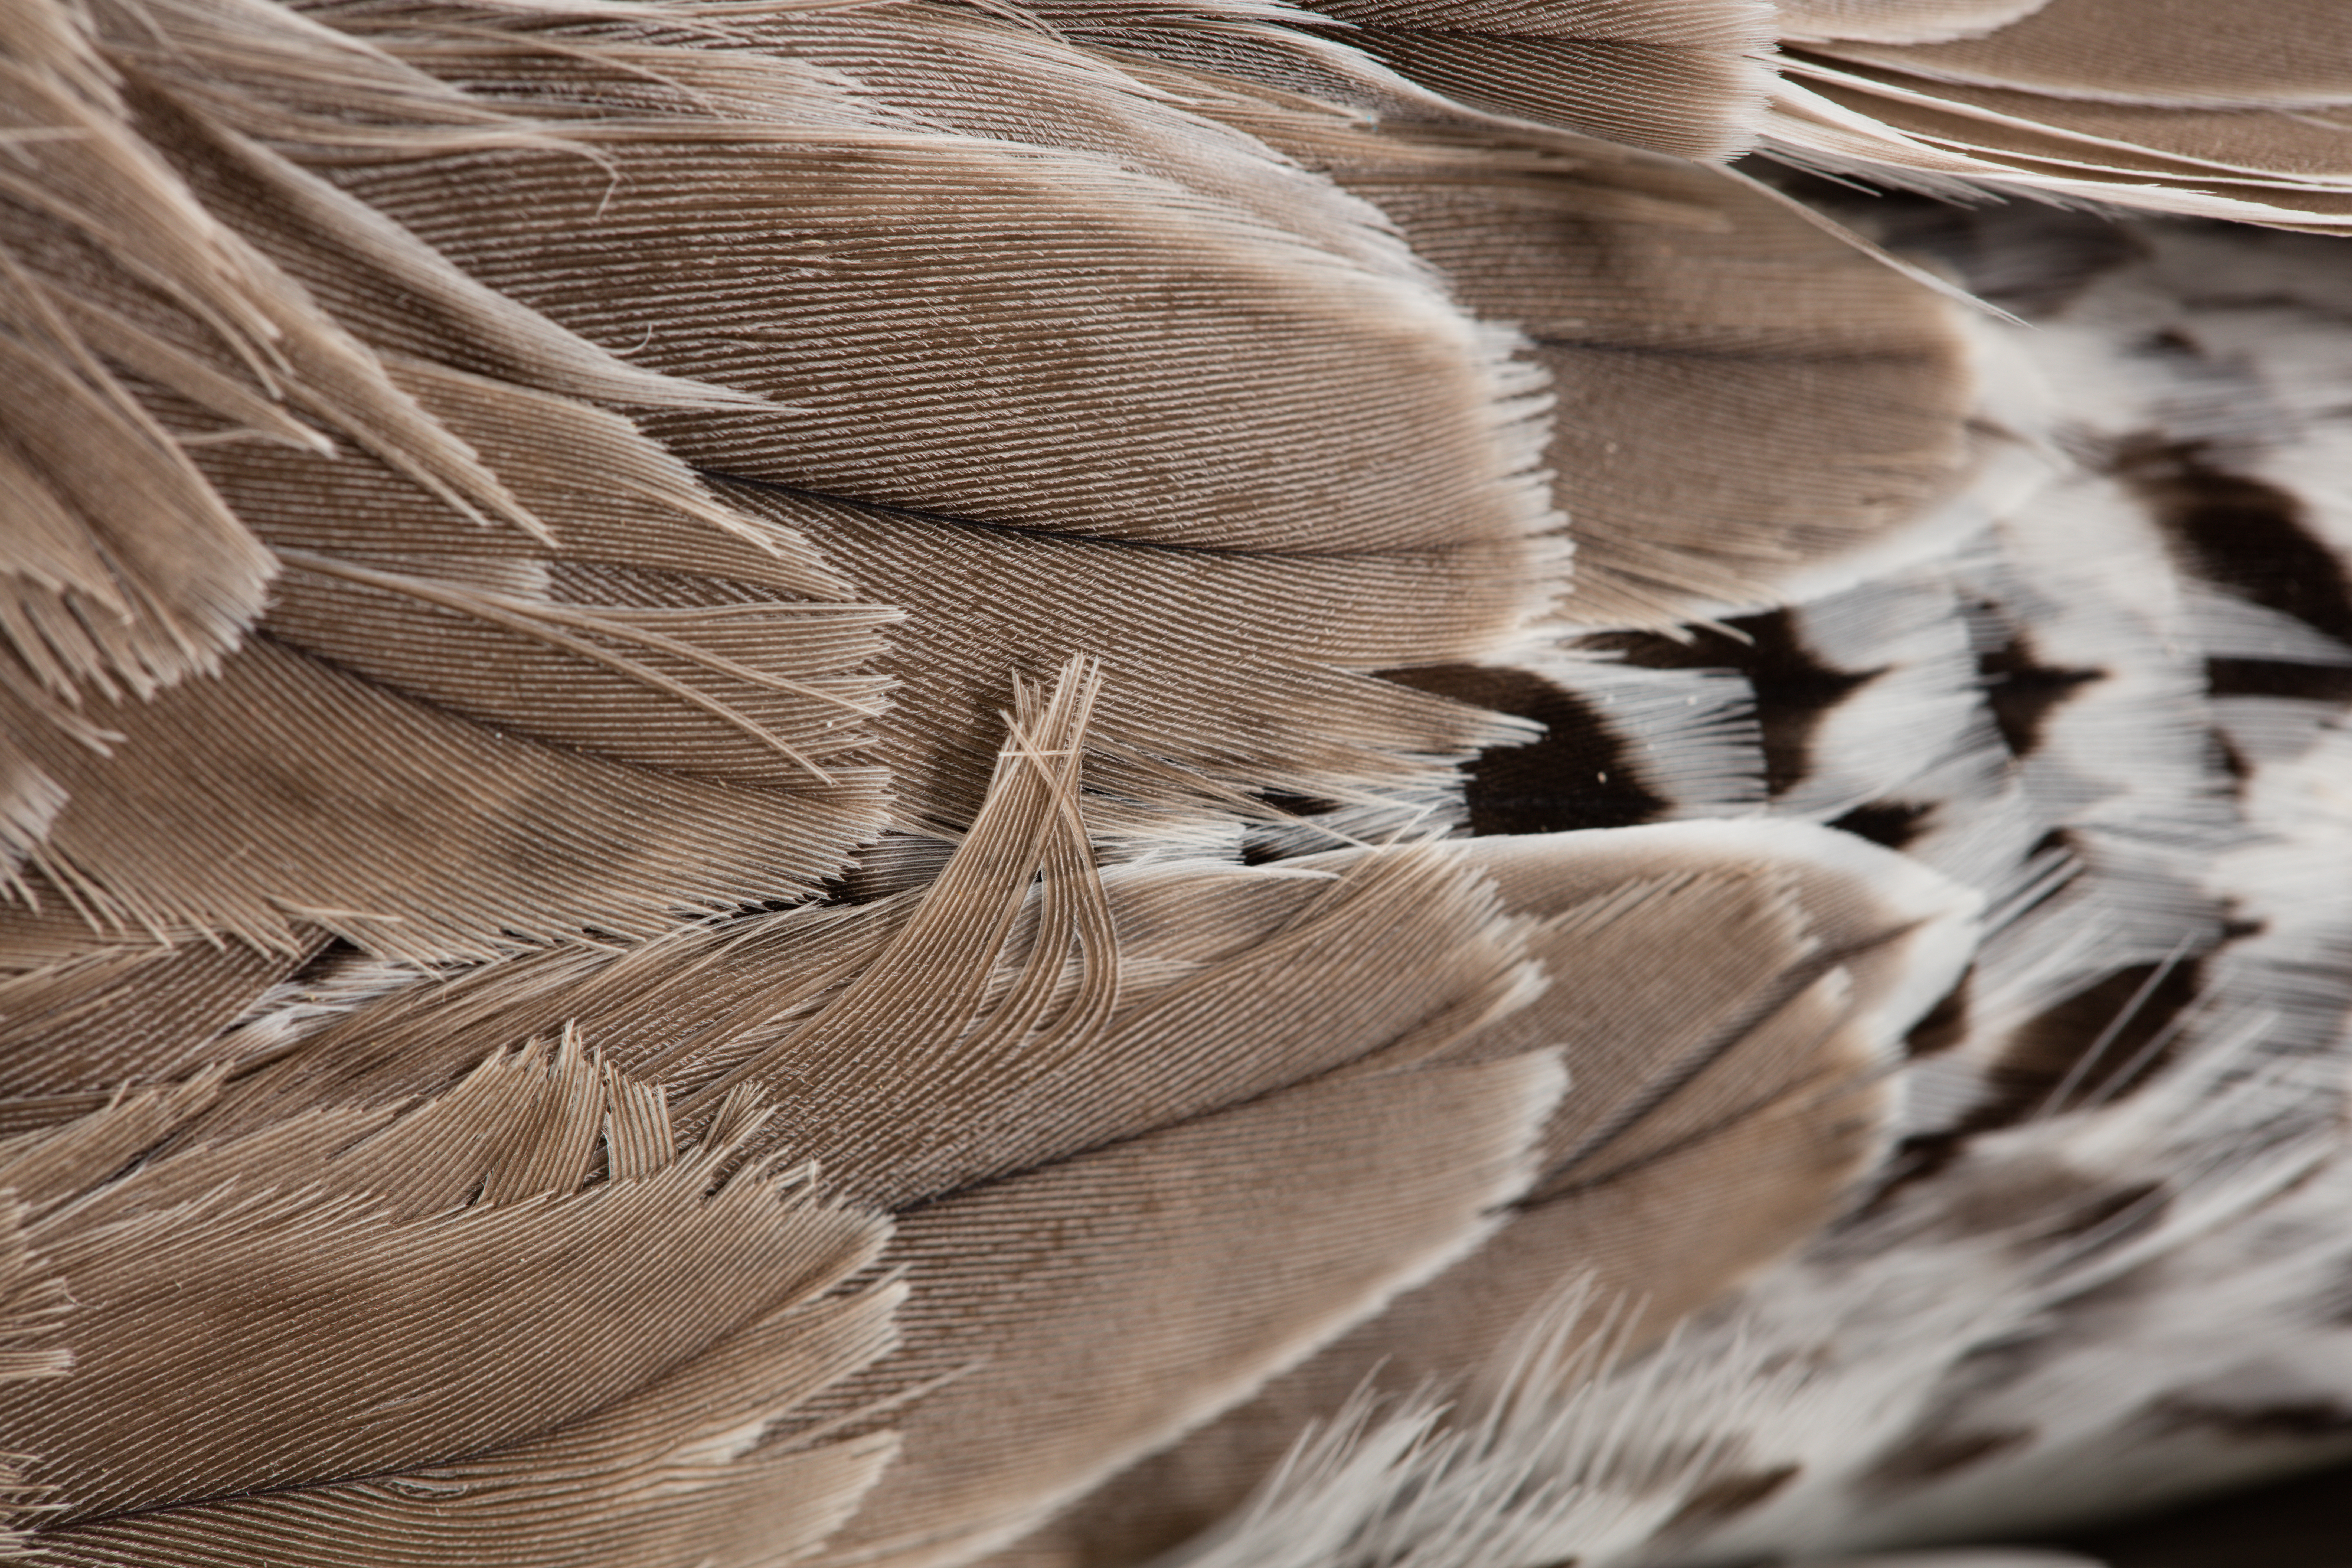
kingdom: Animalia
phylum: Chordata
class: Aves
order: Charadriiformes
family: Scolopacidae
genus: Calidris
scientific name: Calidris canutus
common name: Red knot
